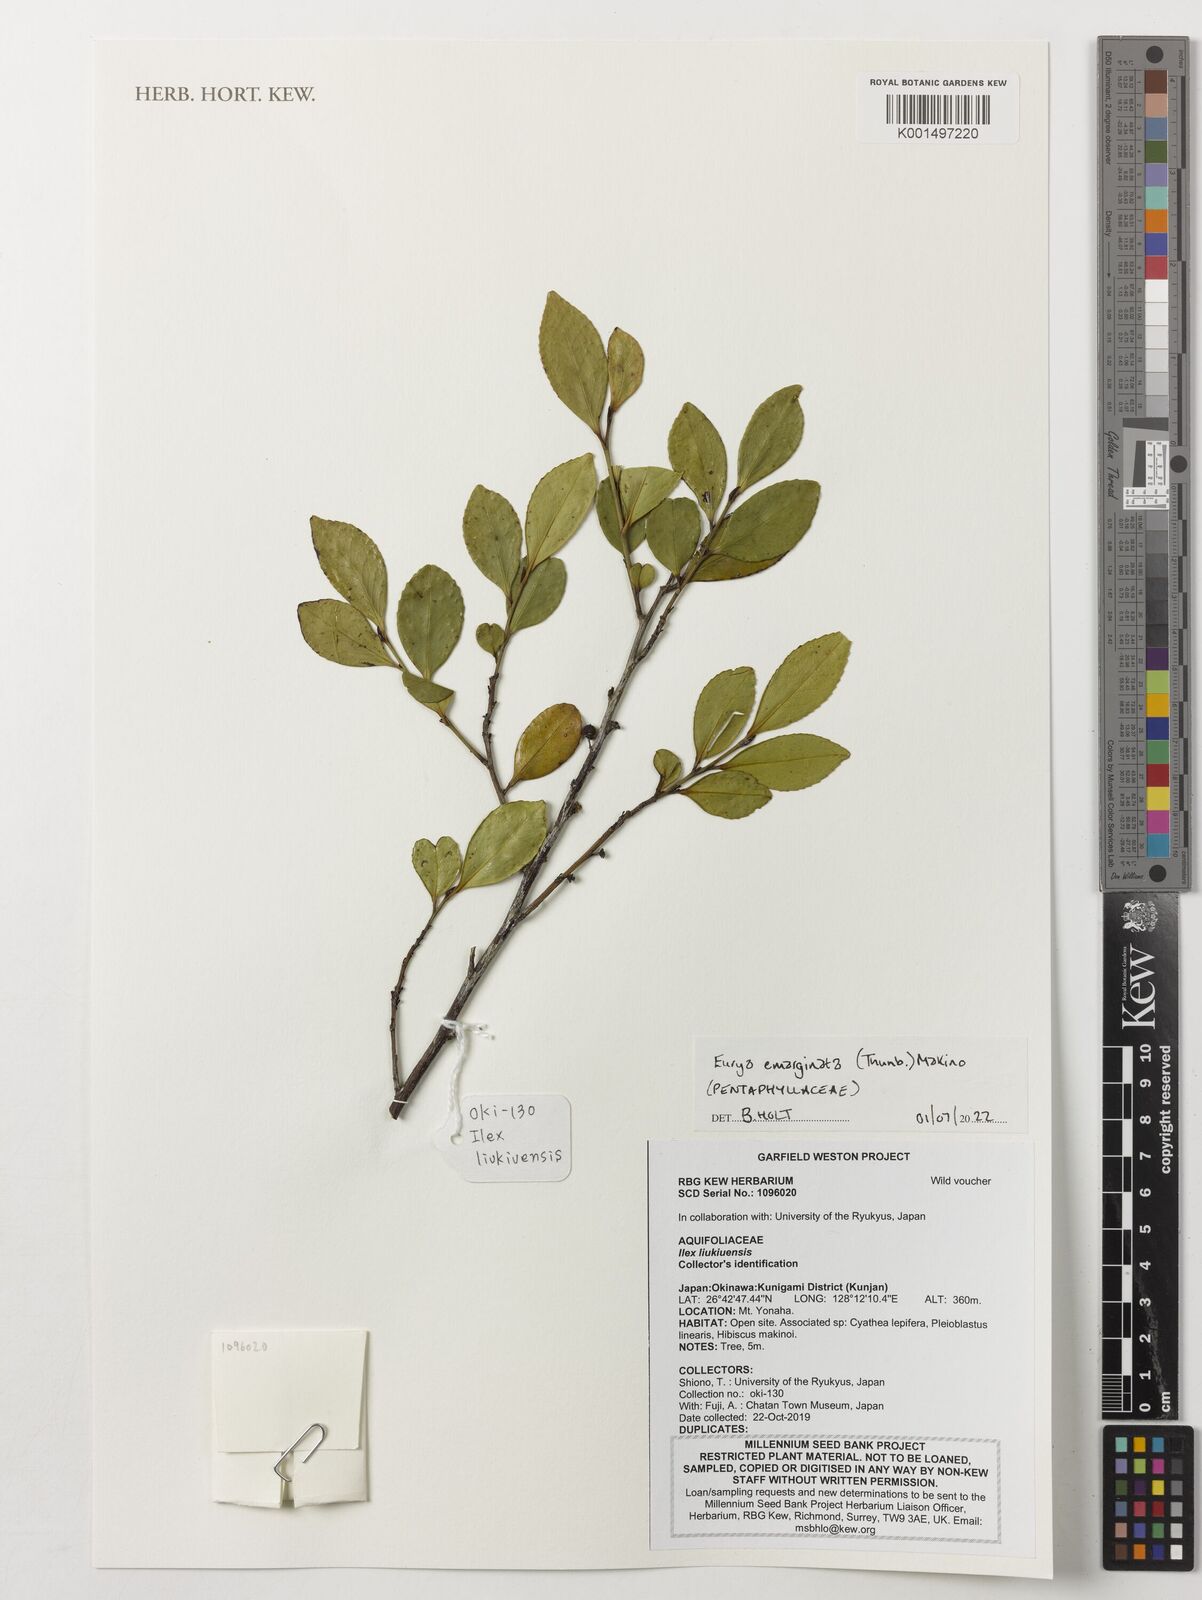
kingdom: Plantae
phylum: Tracheophyta
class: Magnoliopsida
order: Ericales
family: Pentaphylacaceae
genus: Eurya
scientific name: Eurya emarginata
